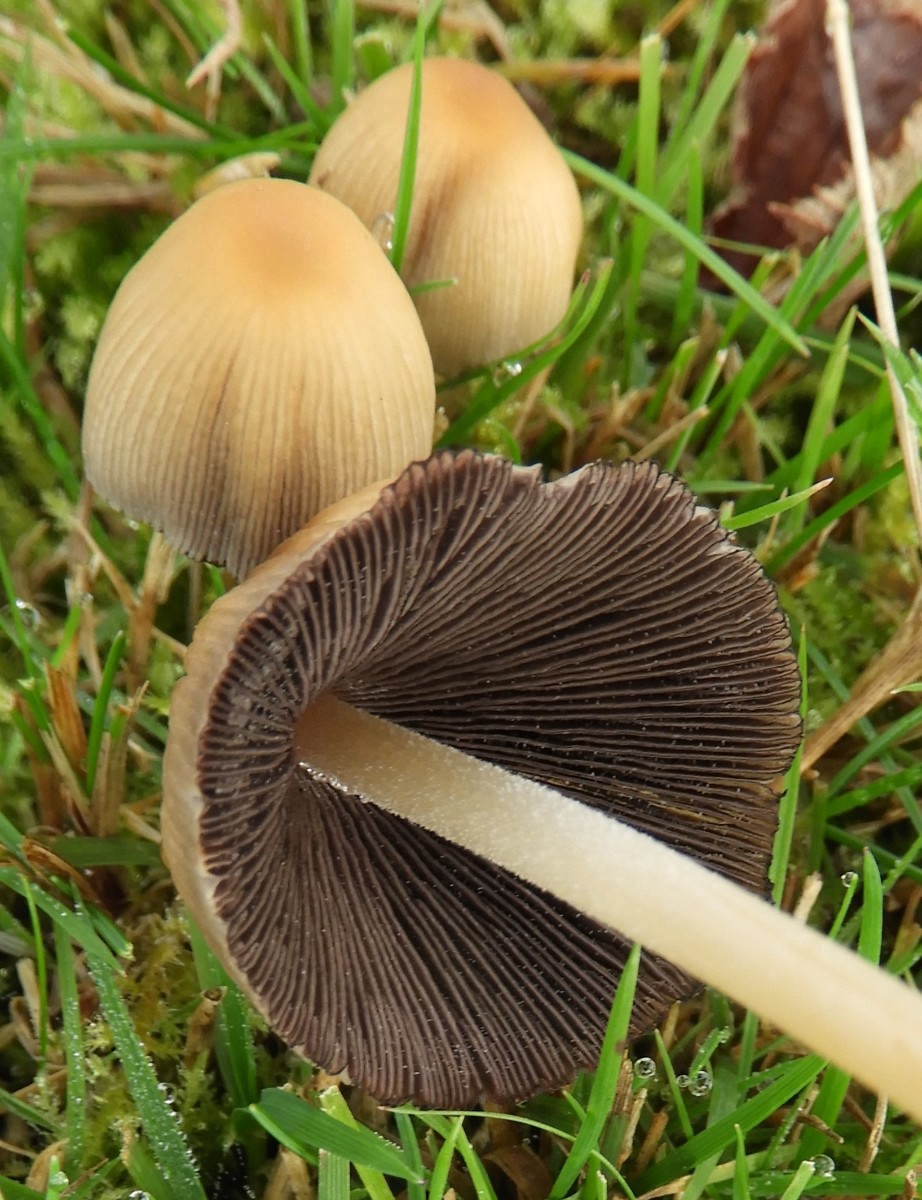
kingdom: Fungi
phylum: Basidiomycota
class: Agaricomycetes
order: Agaricales
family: Psathyrellaceae
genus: Coprinellus
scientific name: Coprinellus micaceus
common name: glimmer-blækhat
